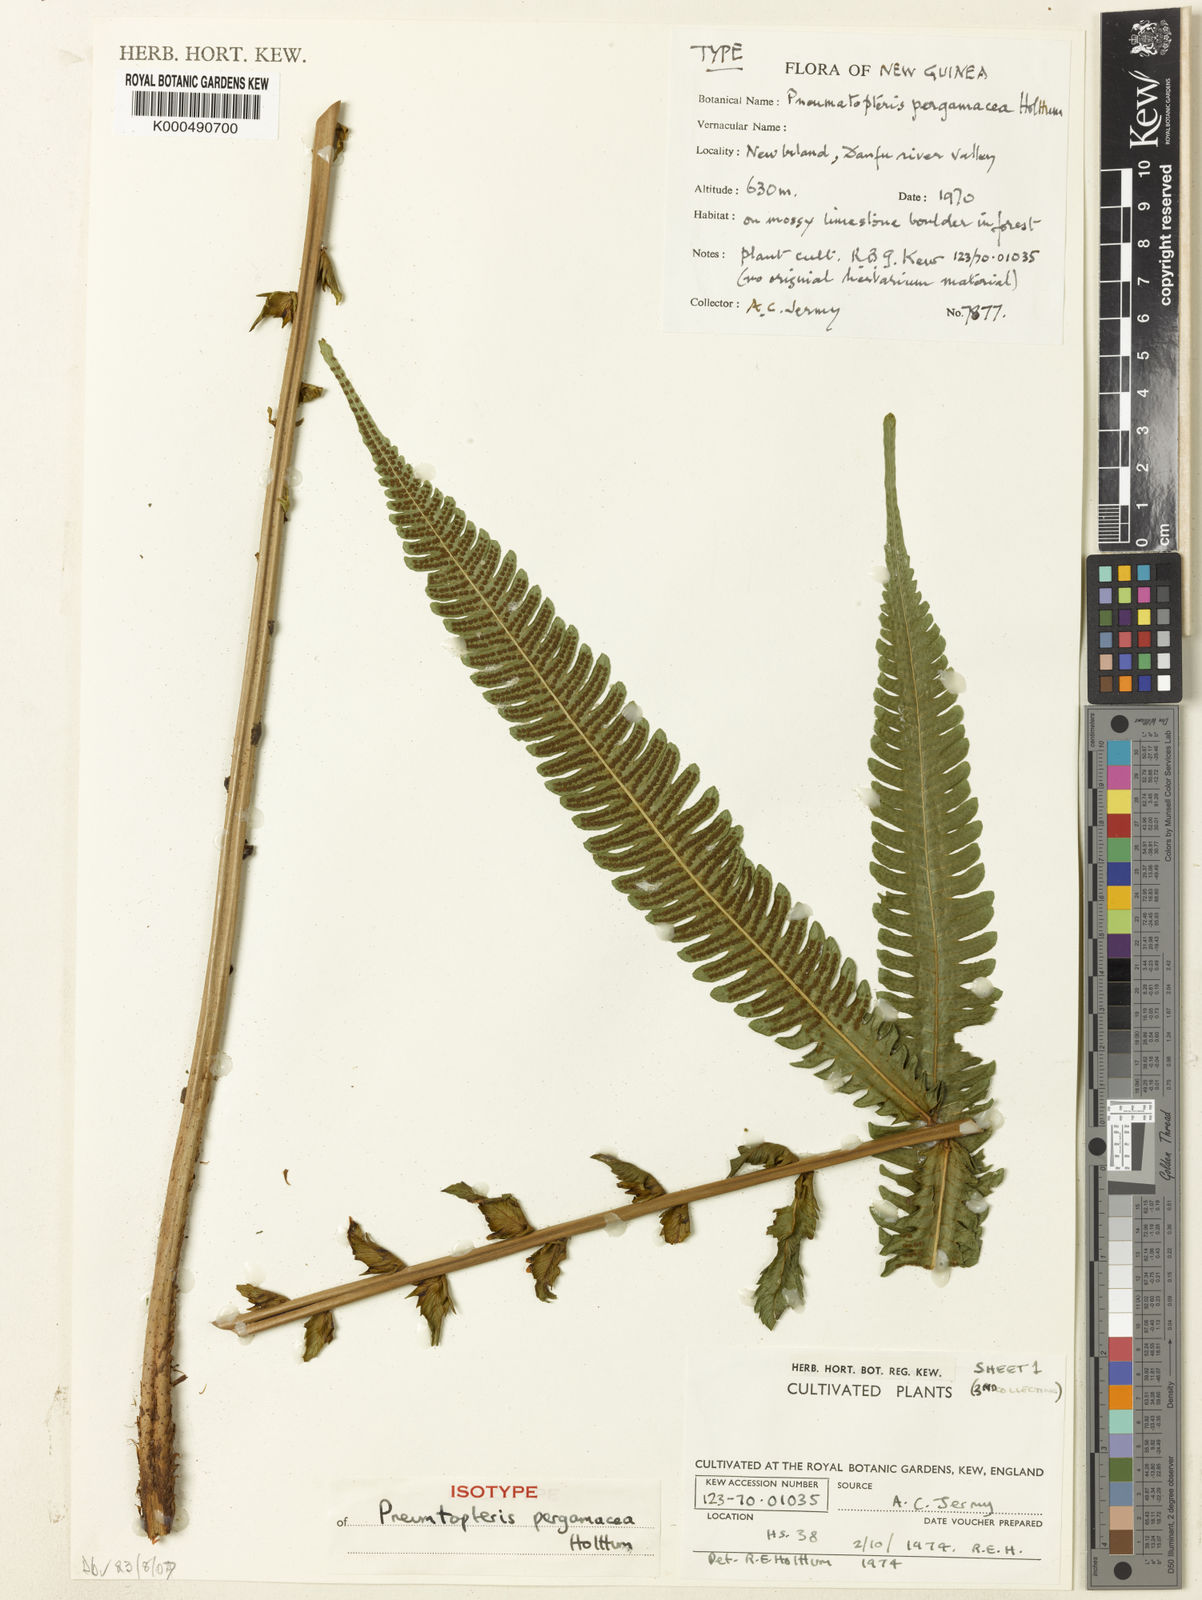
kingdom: Plantae
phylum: Tracheophyta
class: Polypodiopsida
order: Polypodiales
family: Thelypteridaceae
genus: Reholttumia
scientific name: Reholttumia pergamacea
